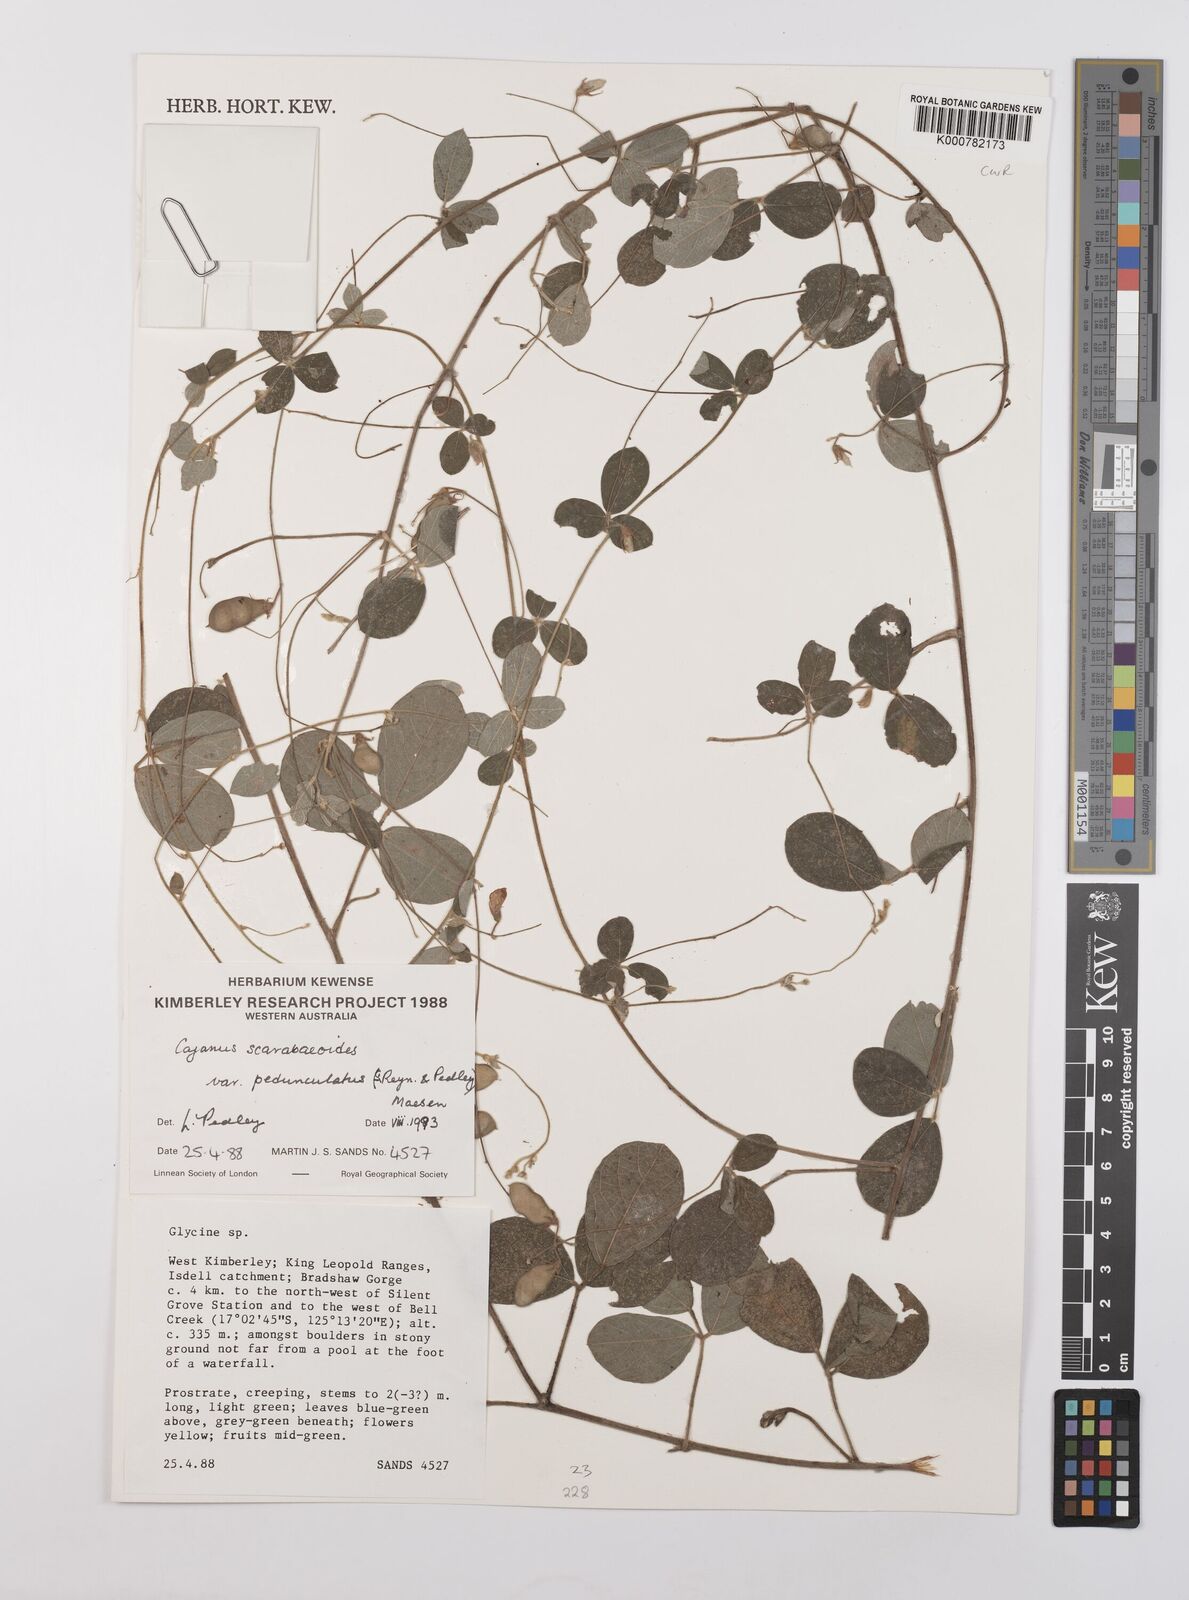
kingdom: Plantae
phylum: Tracheophyta
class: Magnoliopsida
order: Fabales
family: Fabaceae
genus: Cajanus
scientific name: Cajanus scarabaeoides
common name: Showy pigeonpea
